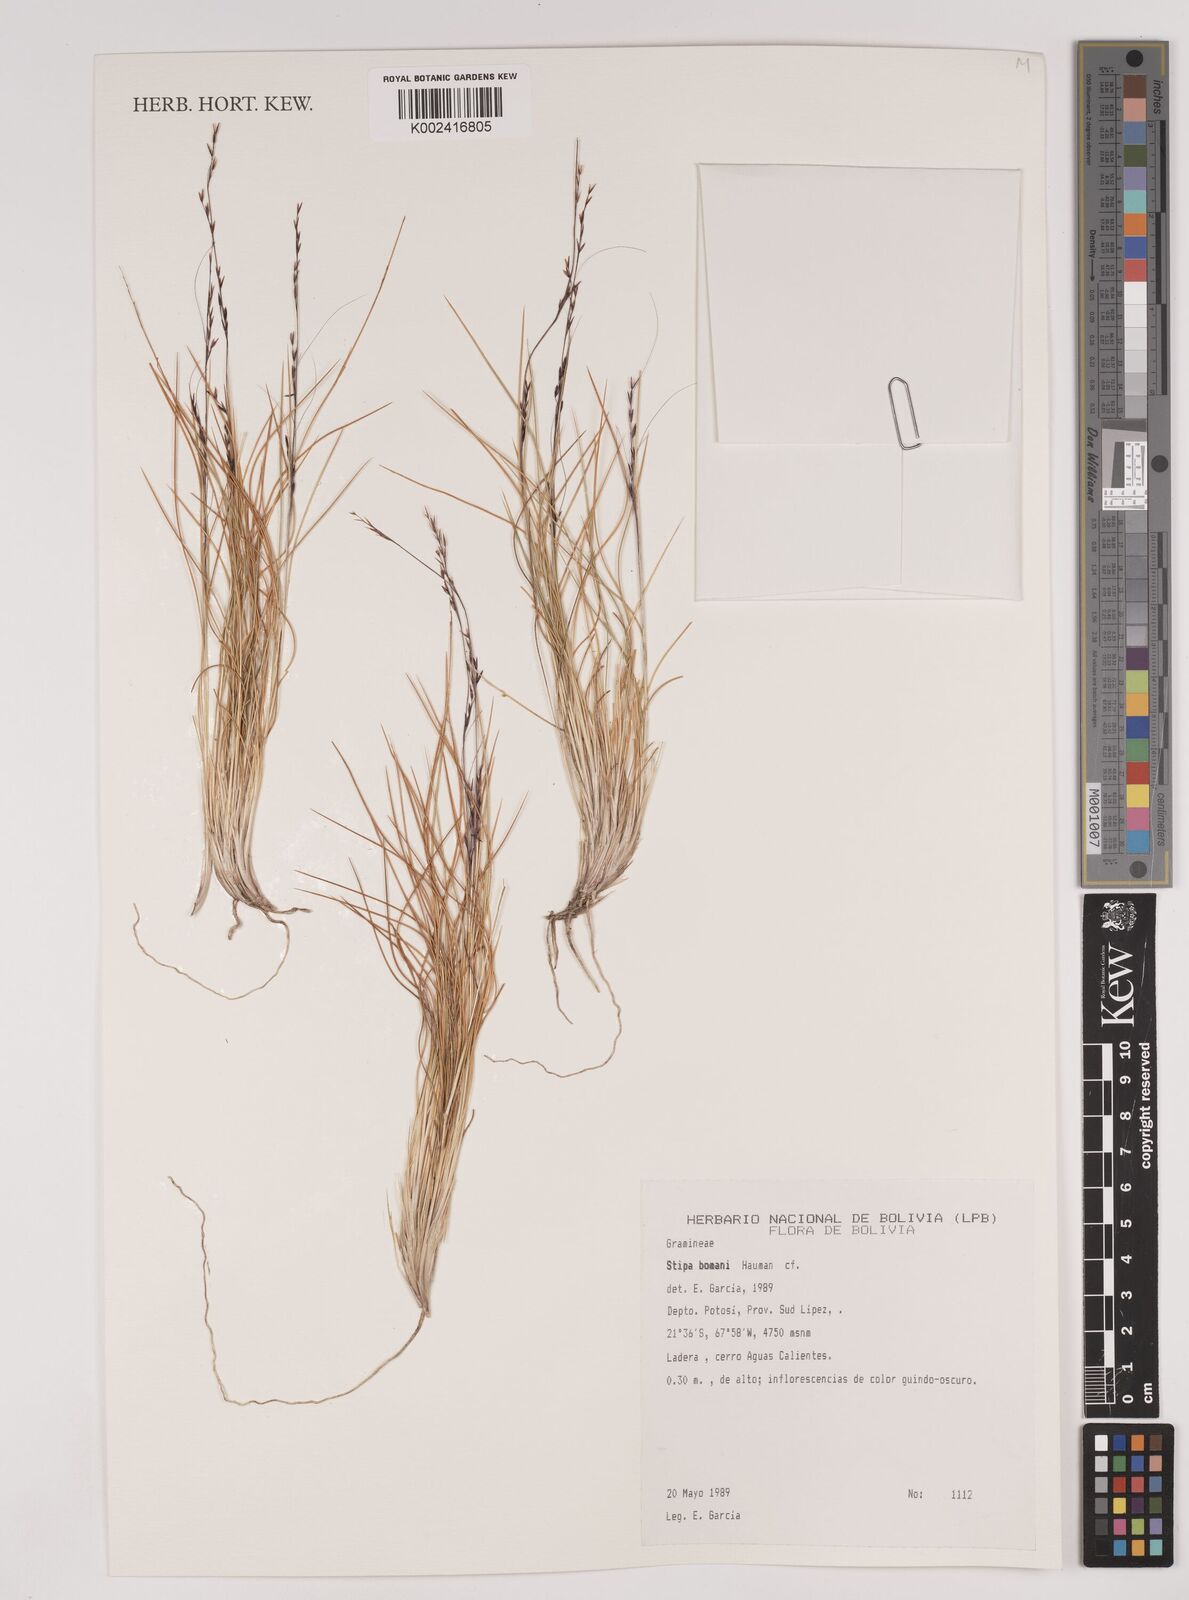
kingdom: Plantae
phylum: Tracheophyta
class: Liliopsida
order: Poales
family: Poaceae
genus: Stipa
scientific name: Stipa bomanii
